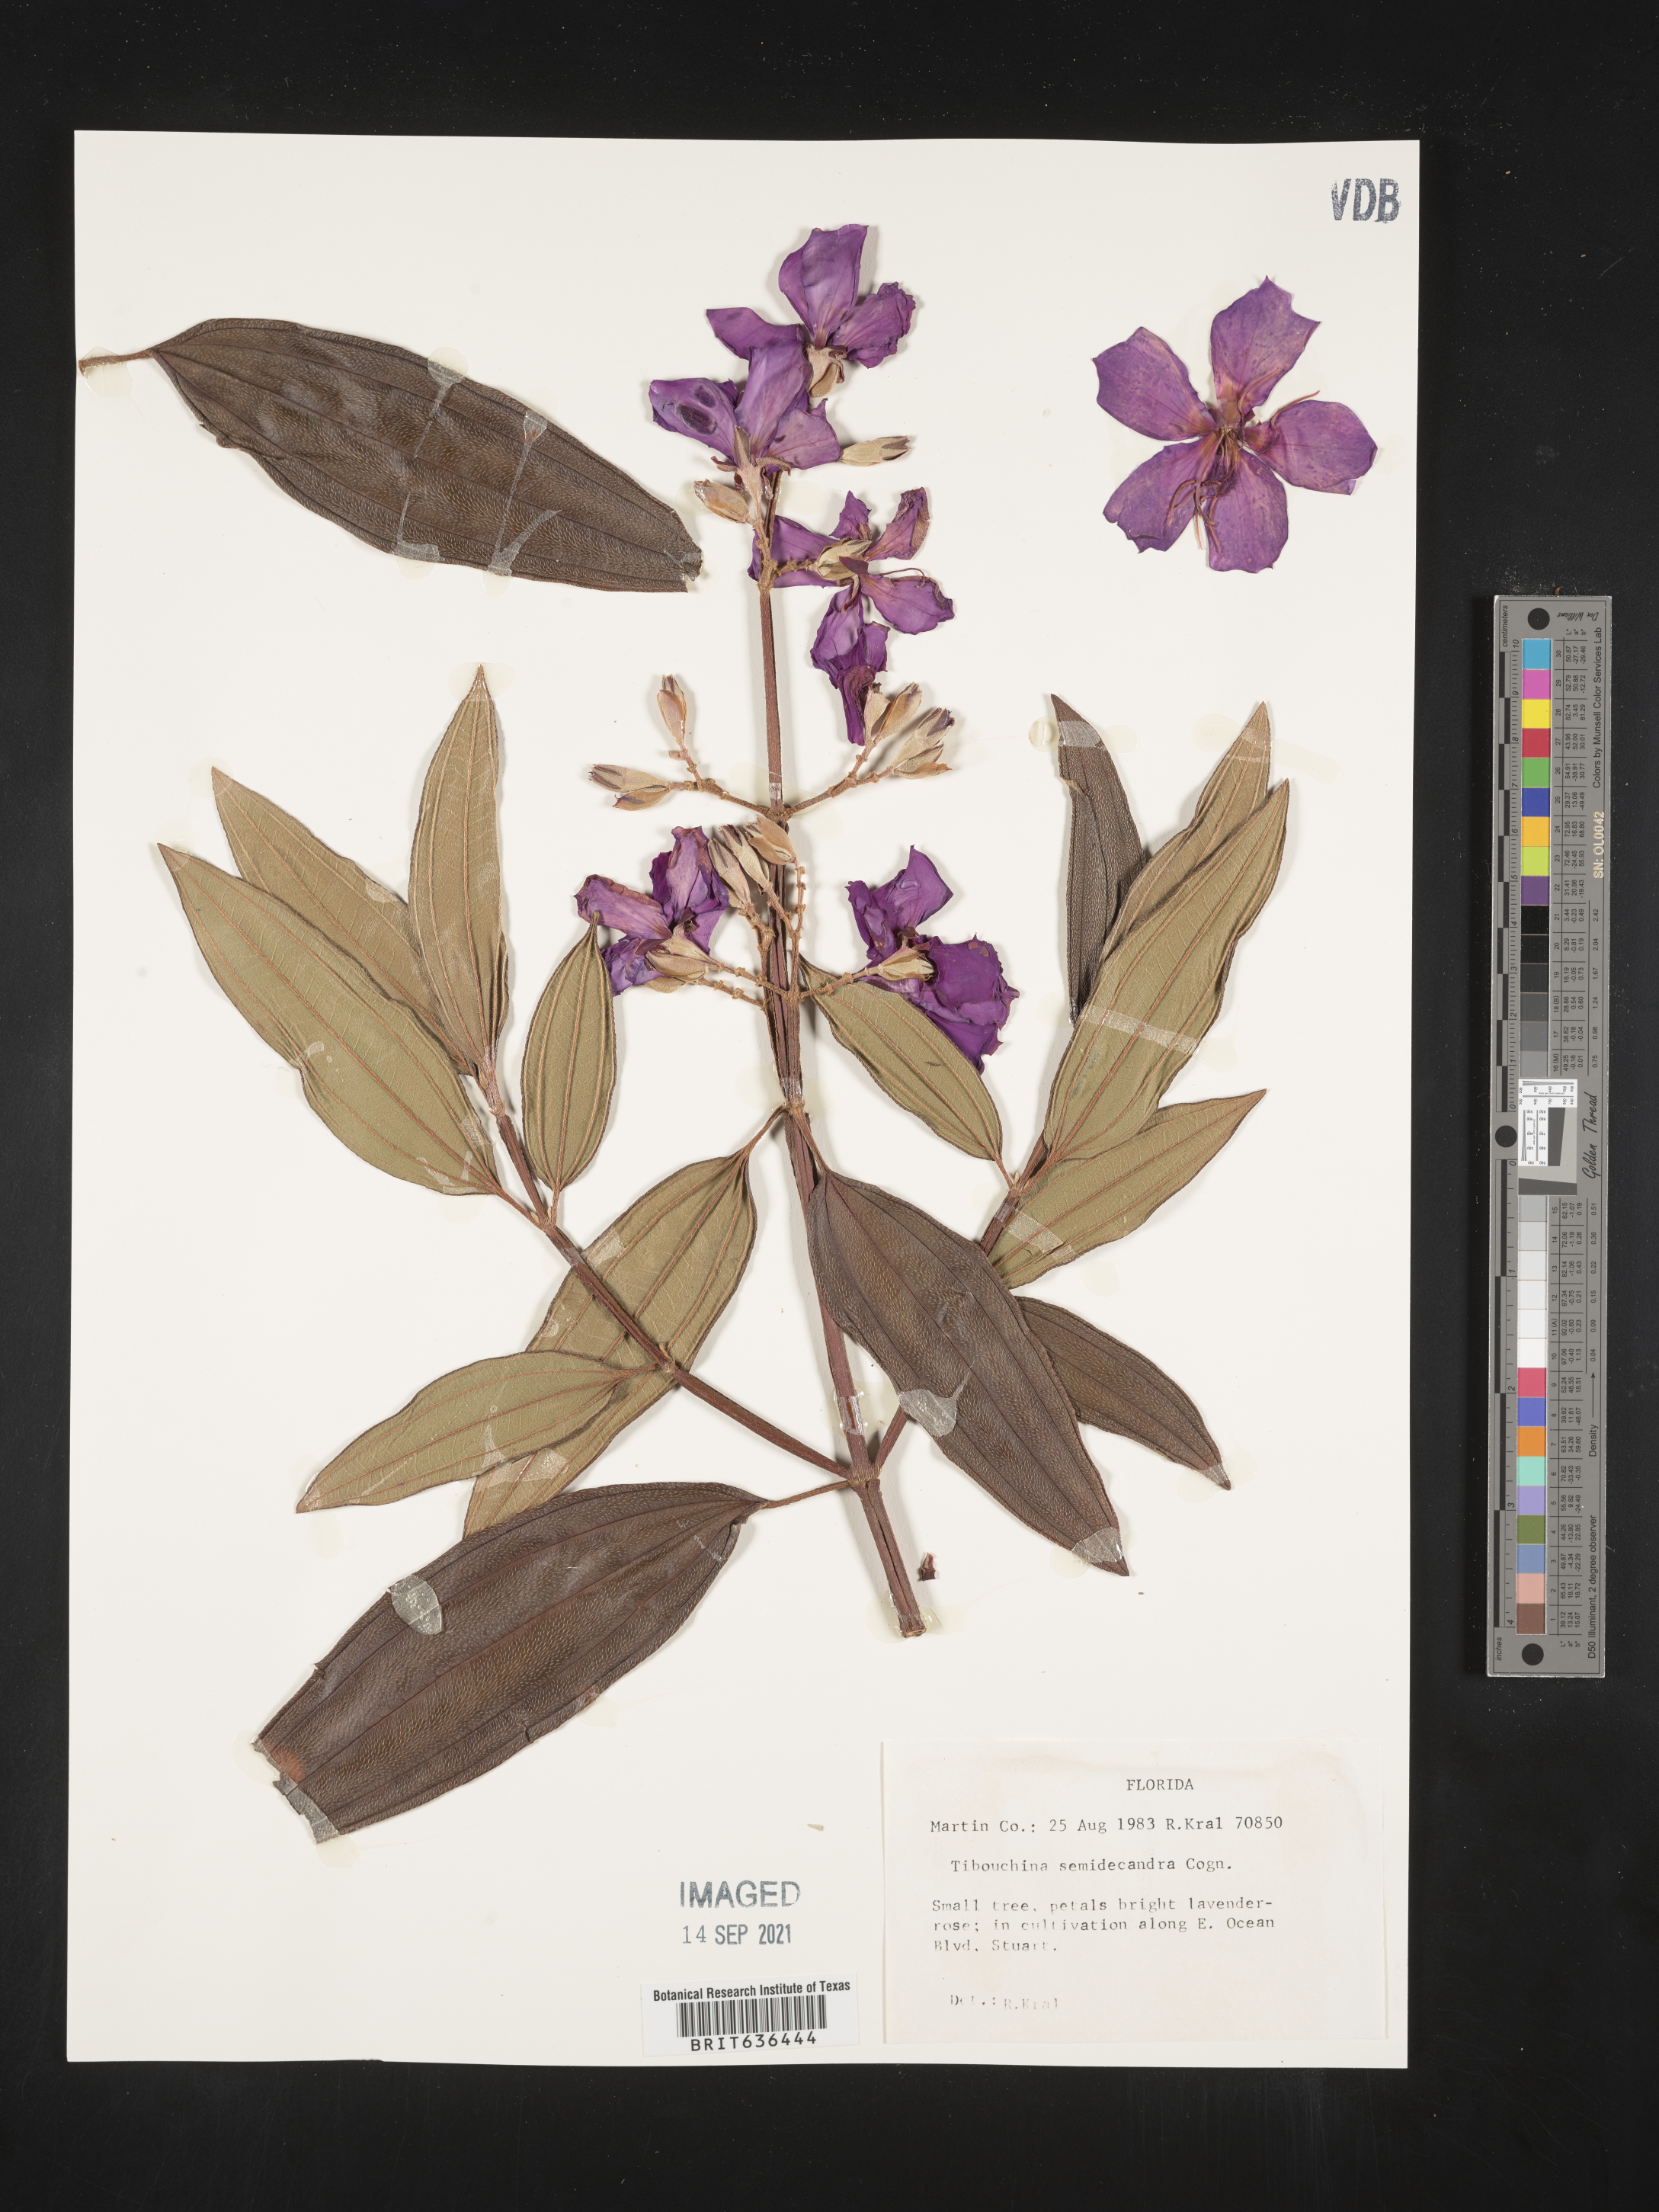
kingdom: Plantae
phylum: Tracheophyta
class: Magnoliopsida
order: Myrtales
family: Melastomataceae
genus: Tibouchina
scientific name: Tibouchina
